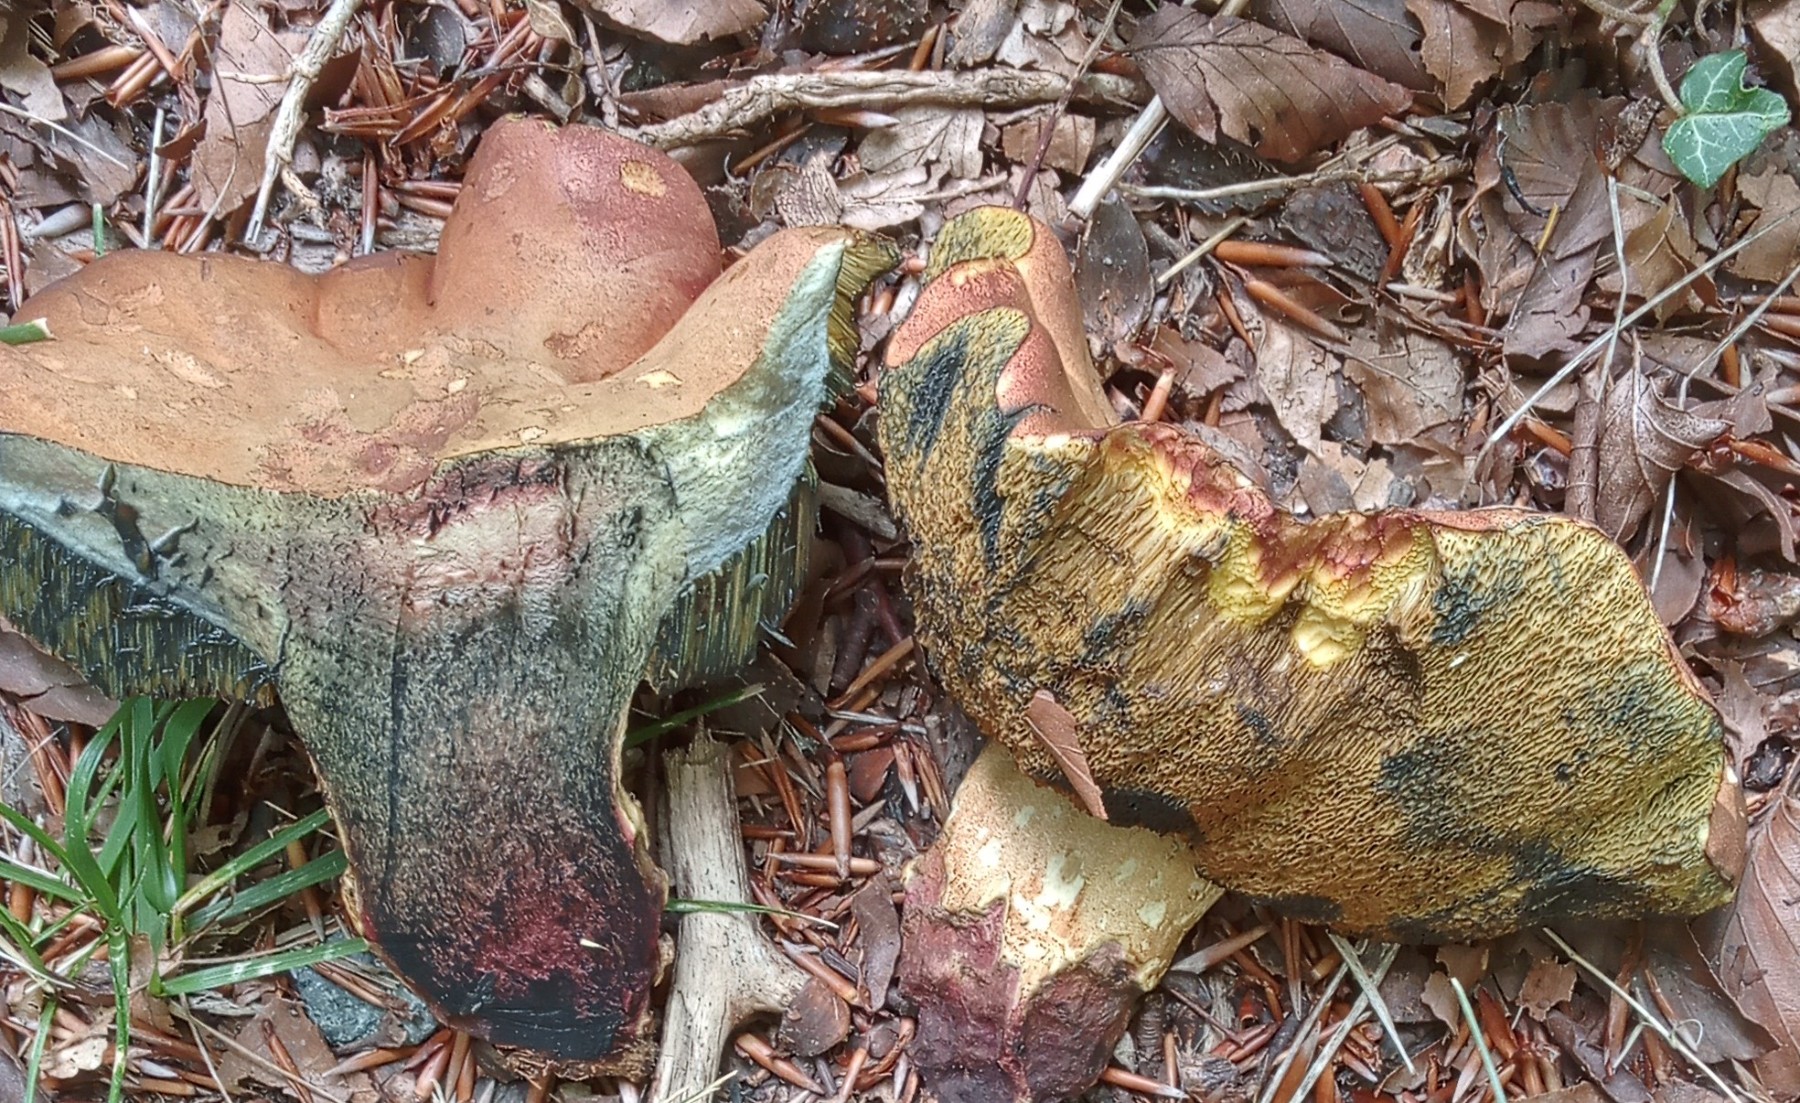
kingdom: Fungi
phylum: Basidiomycota
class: Agaricomycetes
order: Boletales
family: Boletaceae
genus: Suillellus
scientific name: Suillellus queletii
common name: glatstokket indigorørhat
